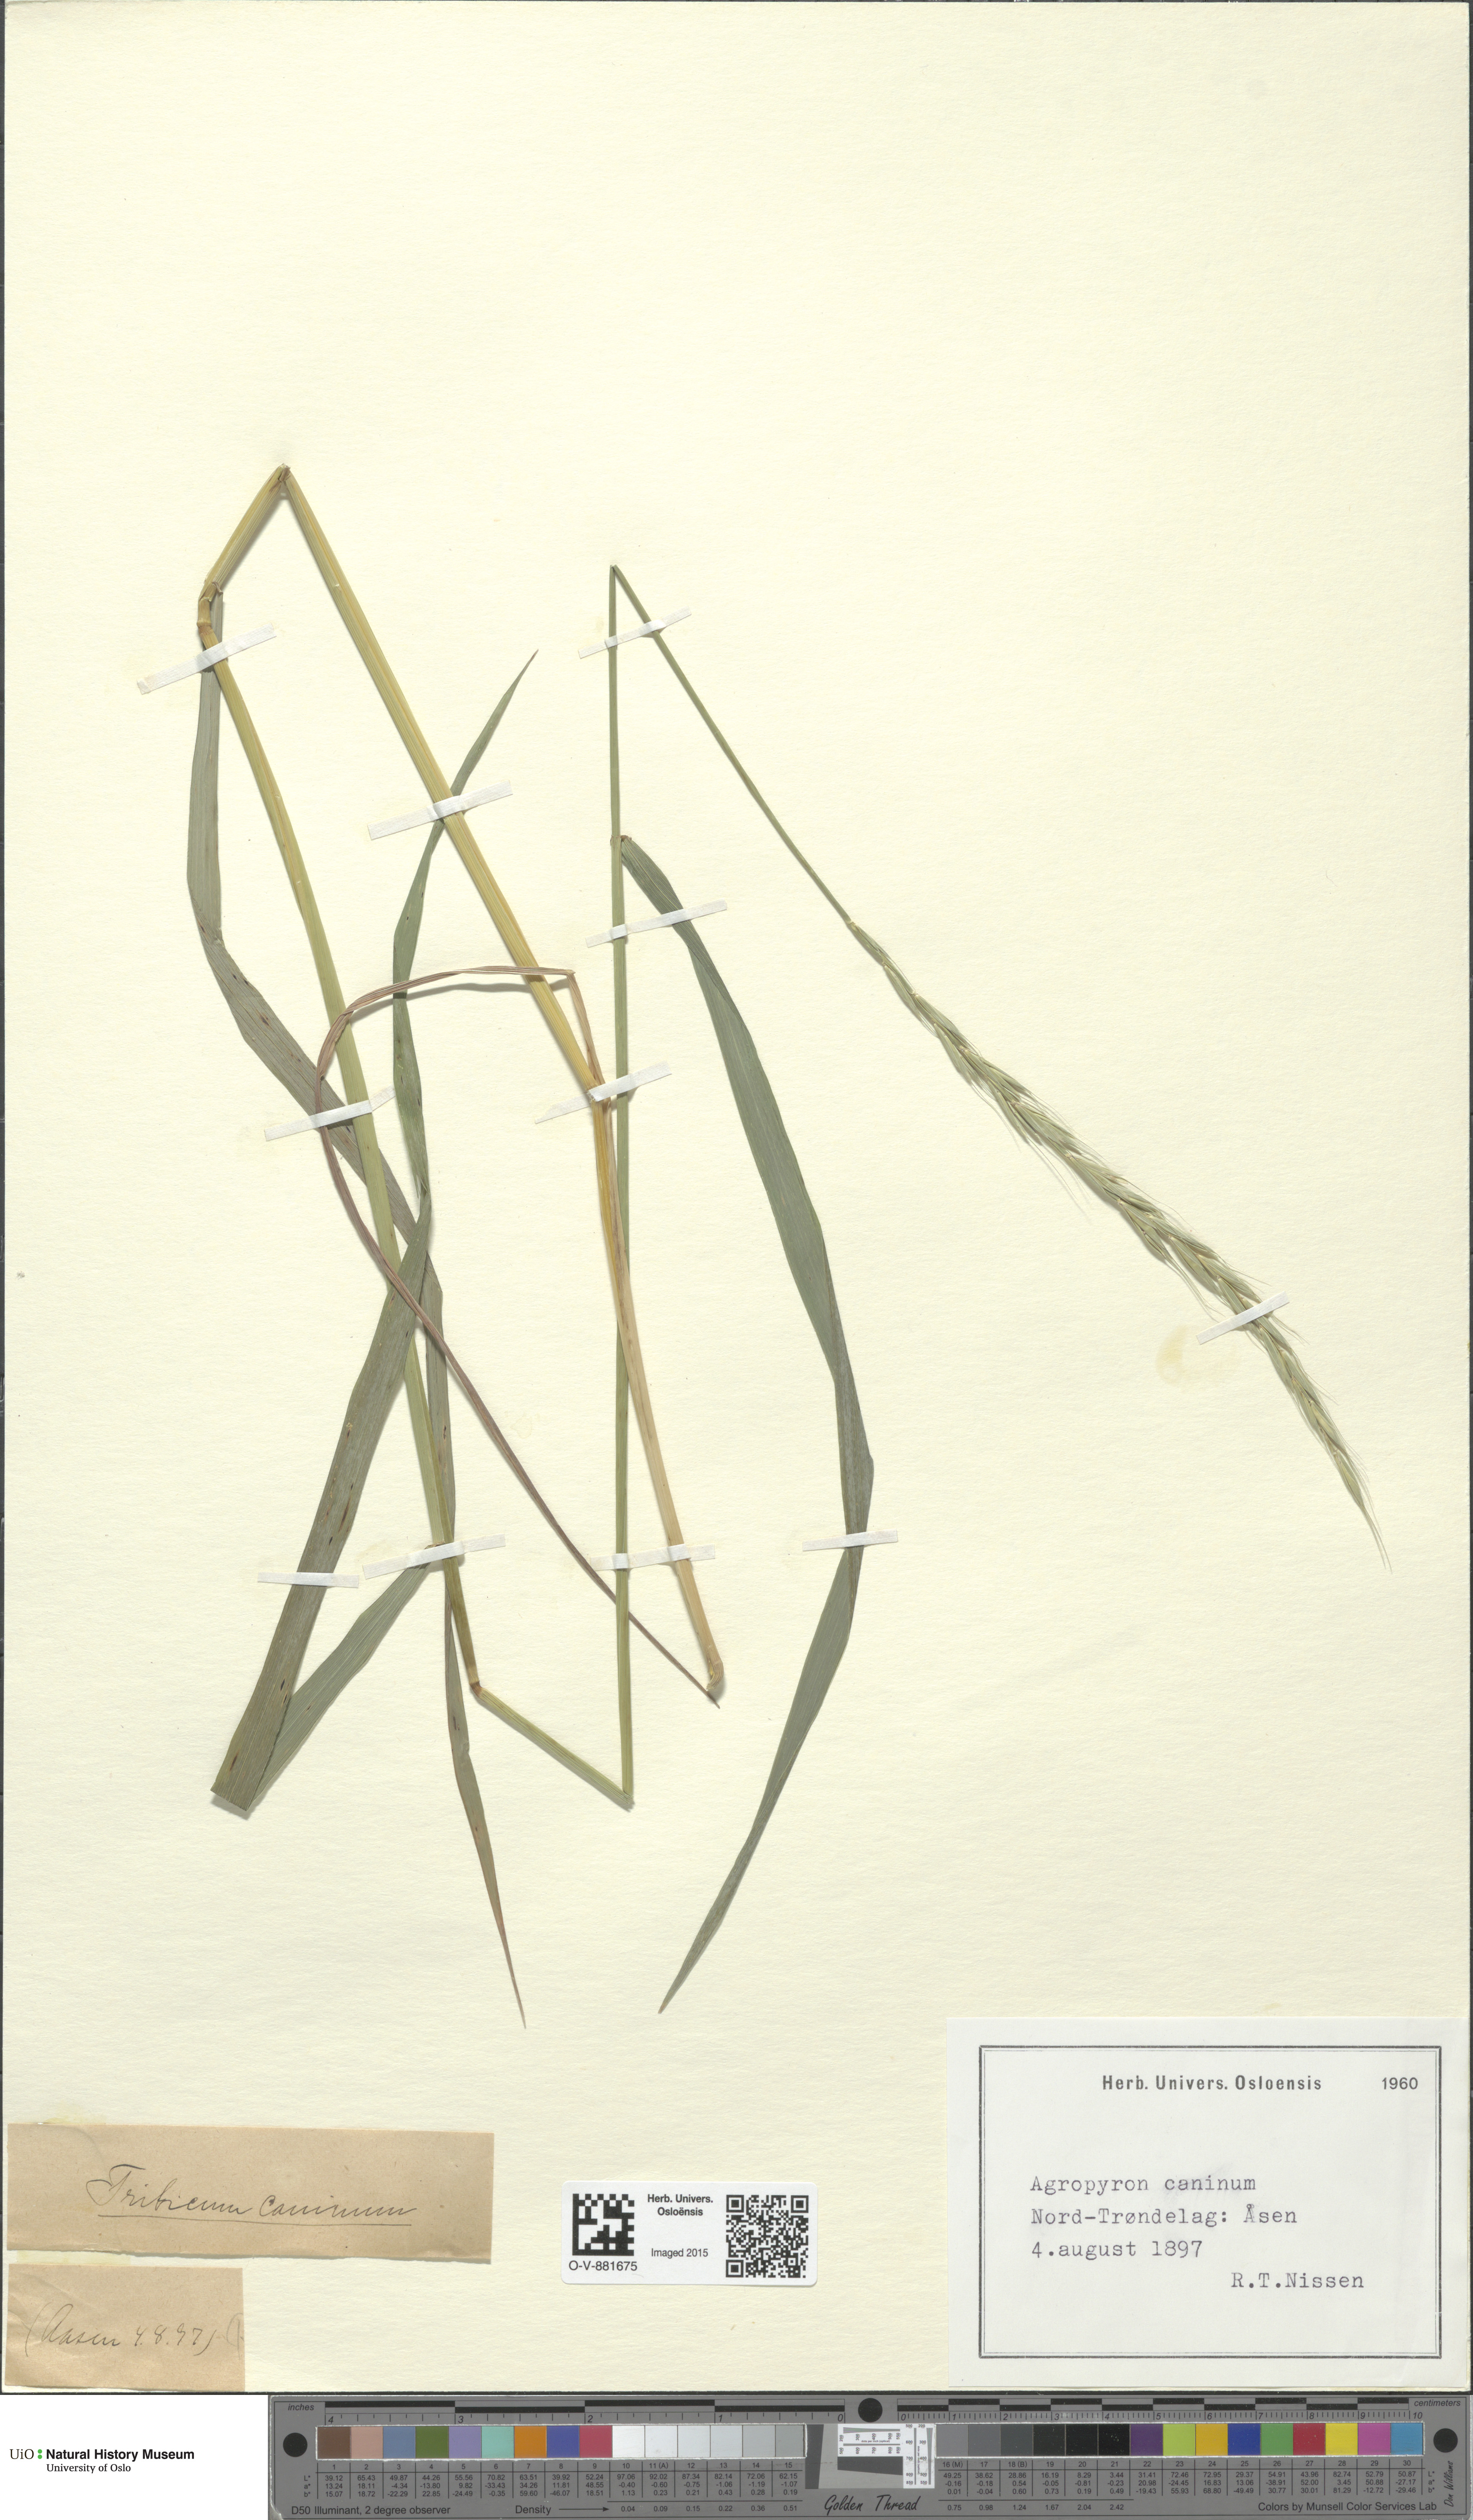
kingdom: Plantae
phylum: Tracheophyta
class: Liliopsida
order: Poales
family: Poaceae
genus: Elymus
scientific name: Elymus caninus
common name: Bearded couch
